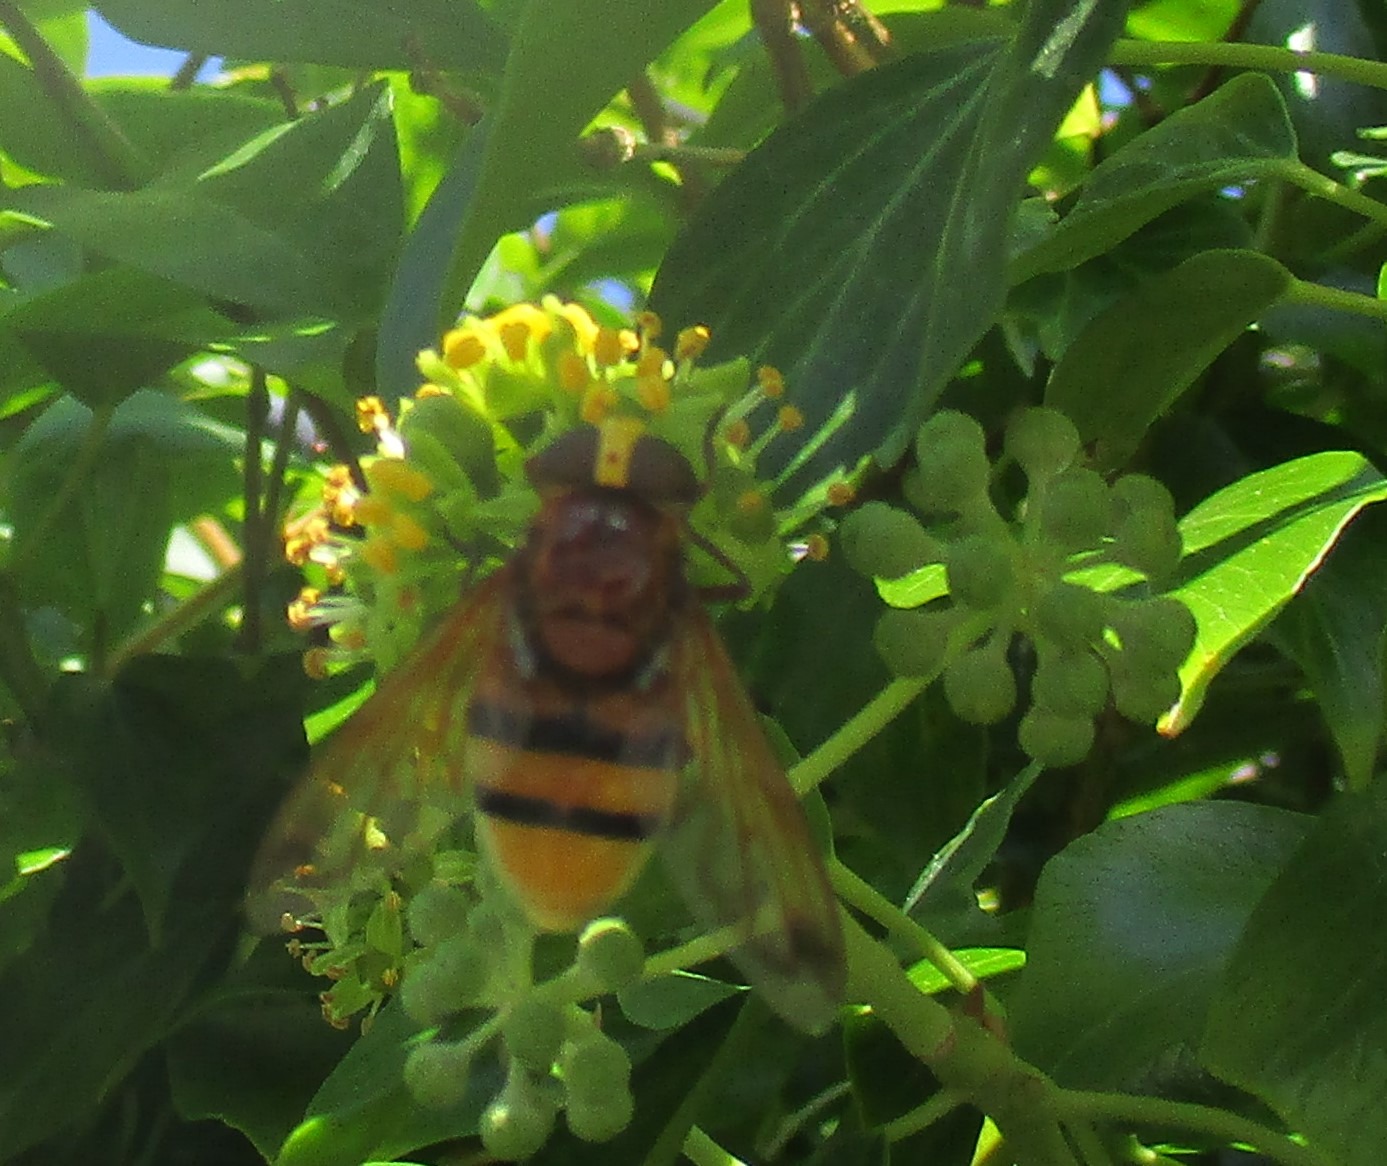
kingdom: Animalia
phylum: Arthropoda
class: Insecta
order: Diptera
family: Syrphidae
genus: Volucella
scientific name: Volucella zonaria
